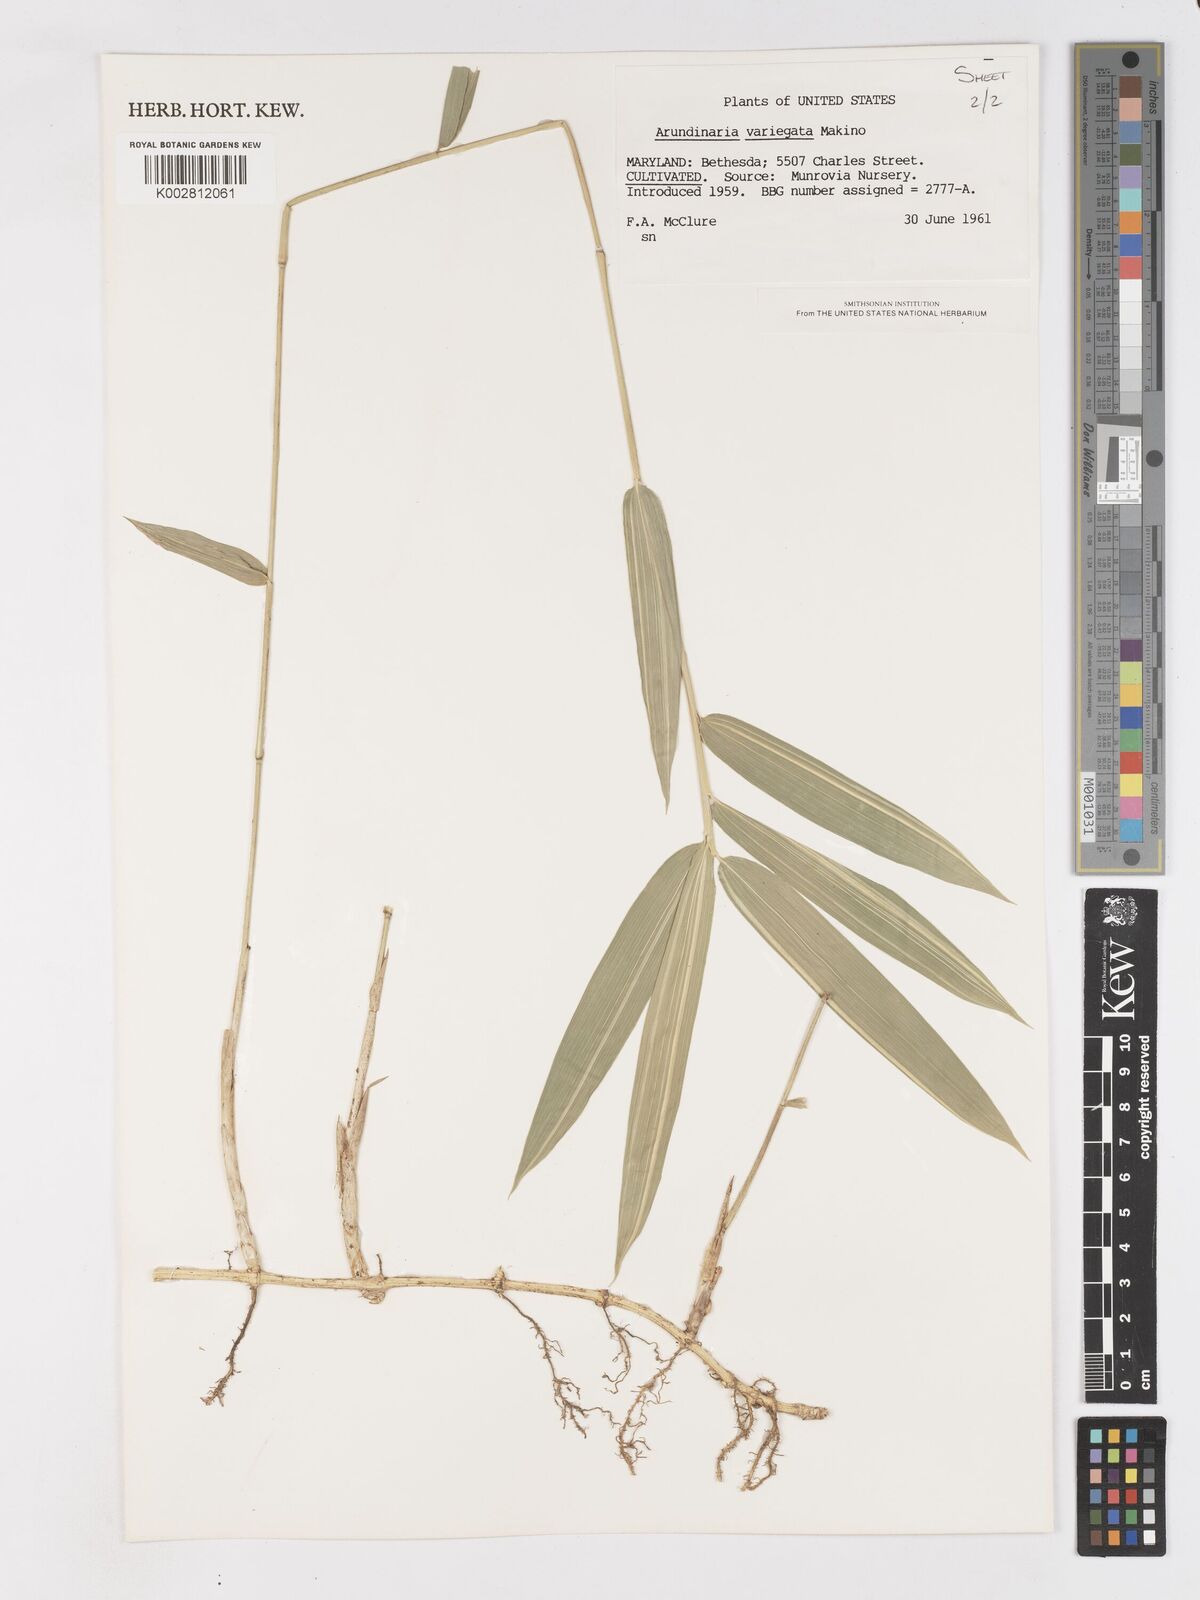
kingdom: Plantae
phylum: Tracheophyta
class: Liliopsida
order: Poales
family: Poaceae
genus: Pleioblastus
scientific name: Pleioblastus argenteostriatus
